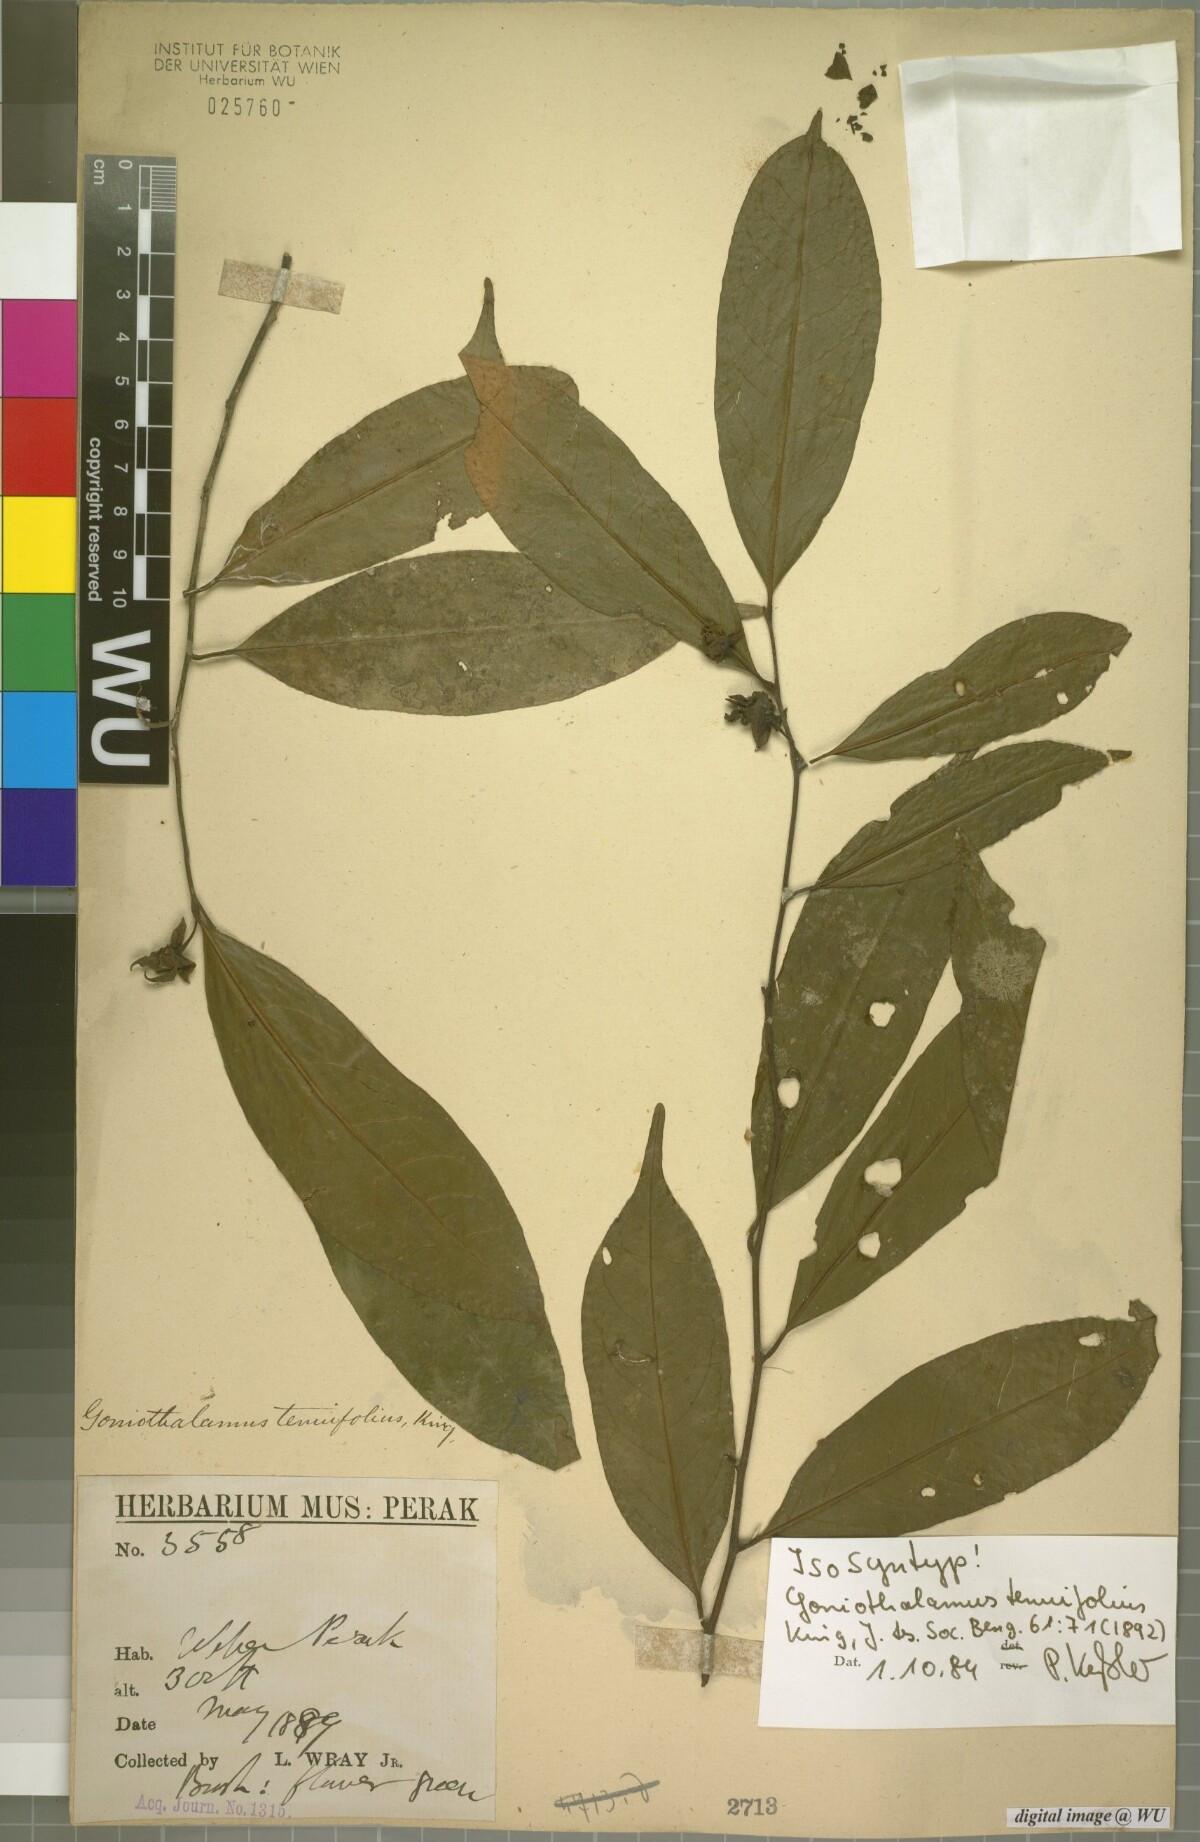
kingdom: Plantae
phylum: Tracheophyta
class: Magnoliopsida
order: Magnoliales
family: Annonaceae
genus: Goniothalamus
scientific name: Goniothalamus tenuifolius
